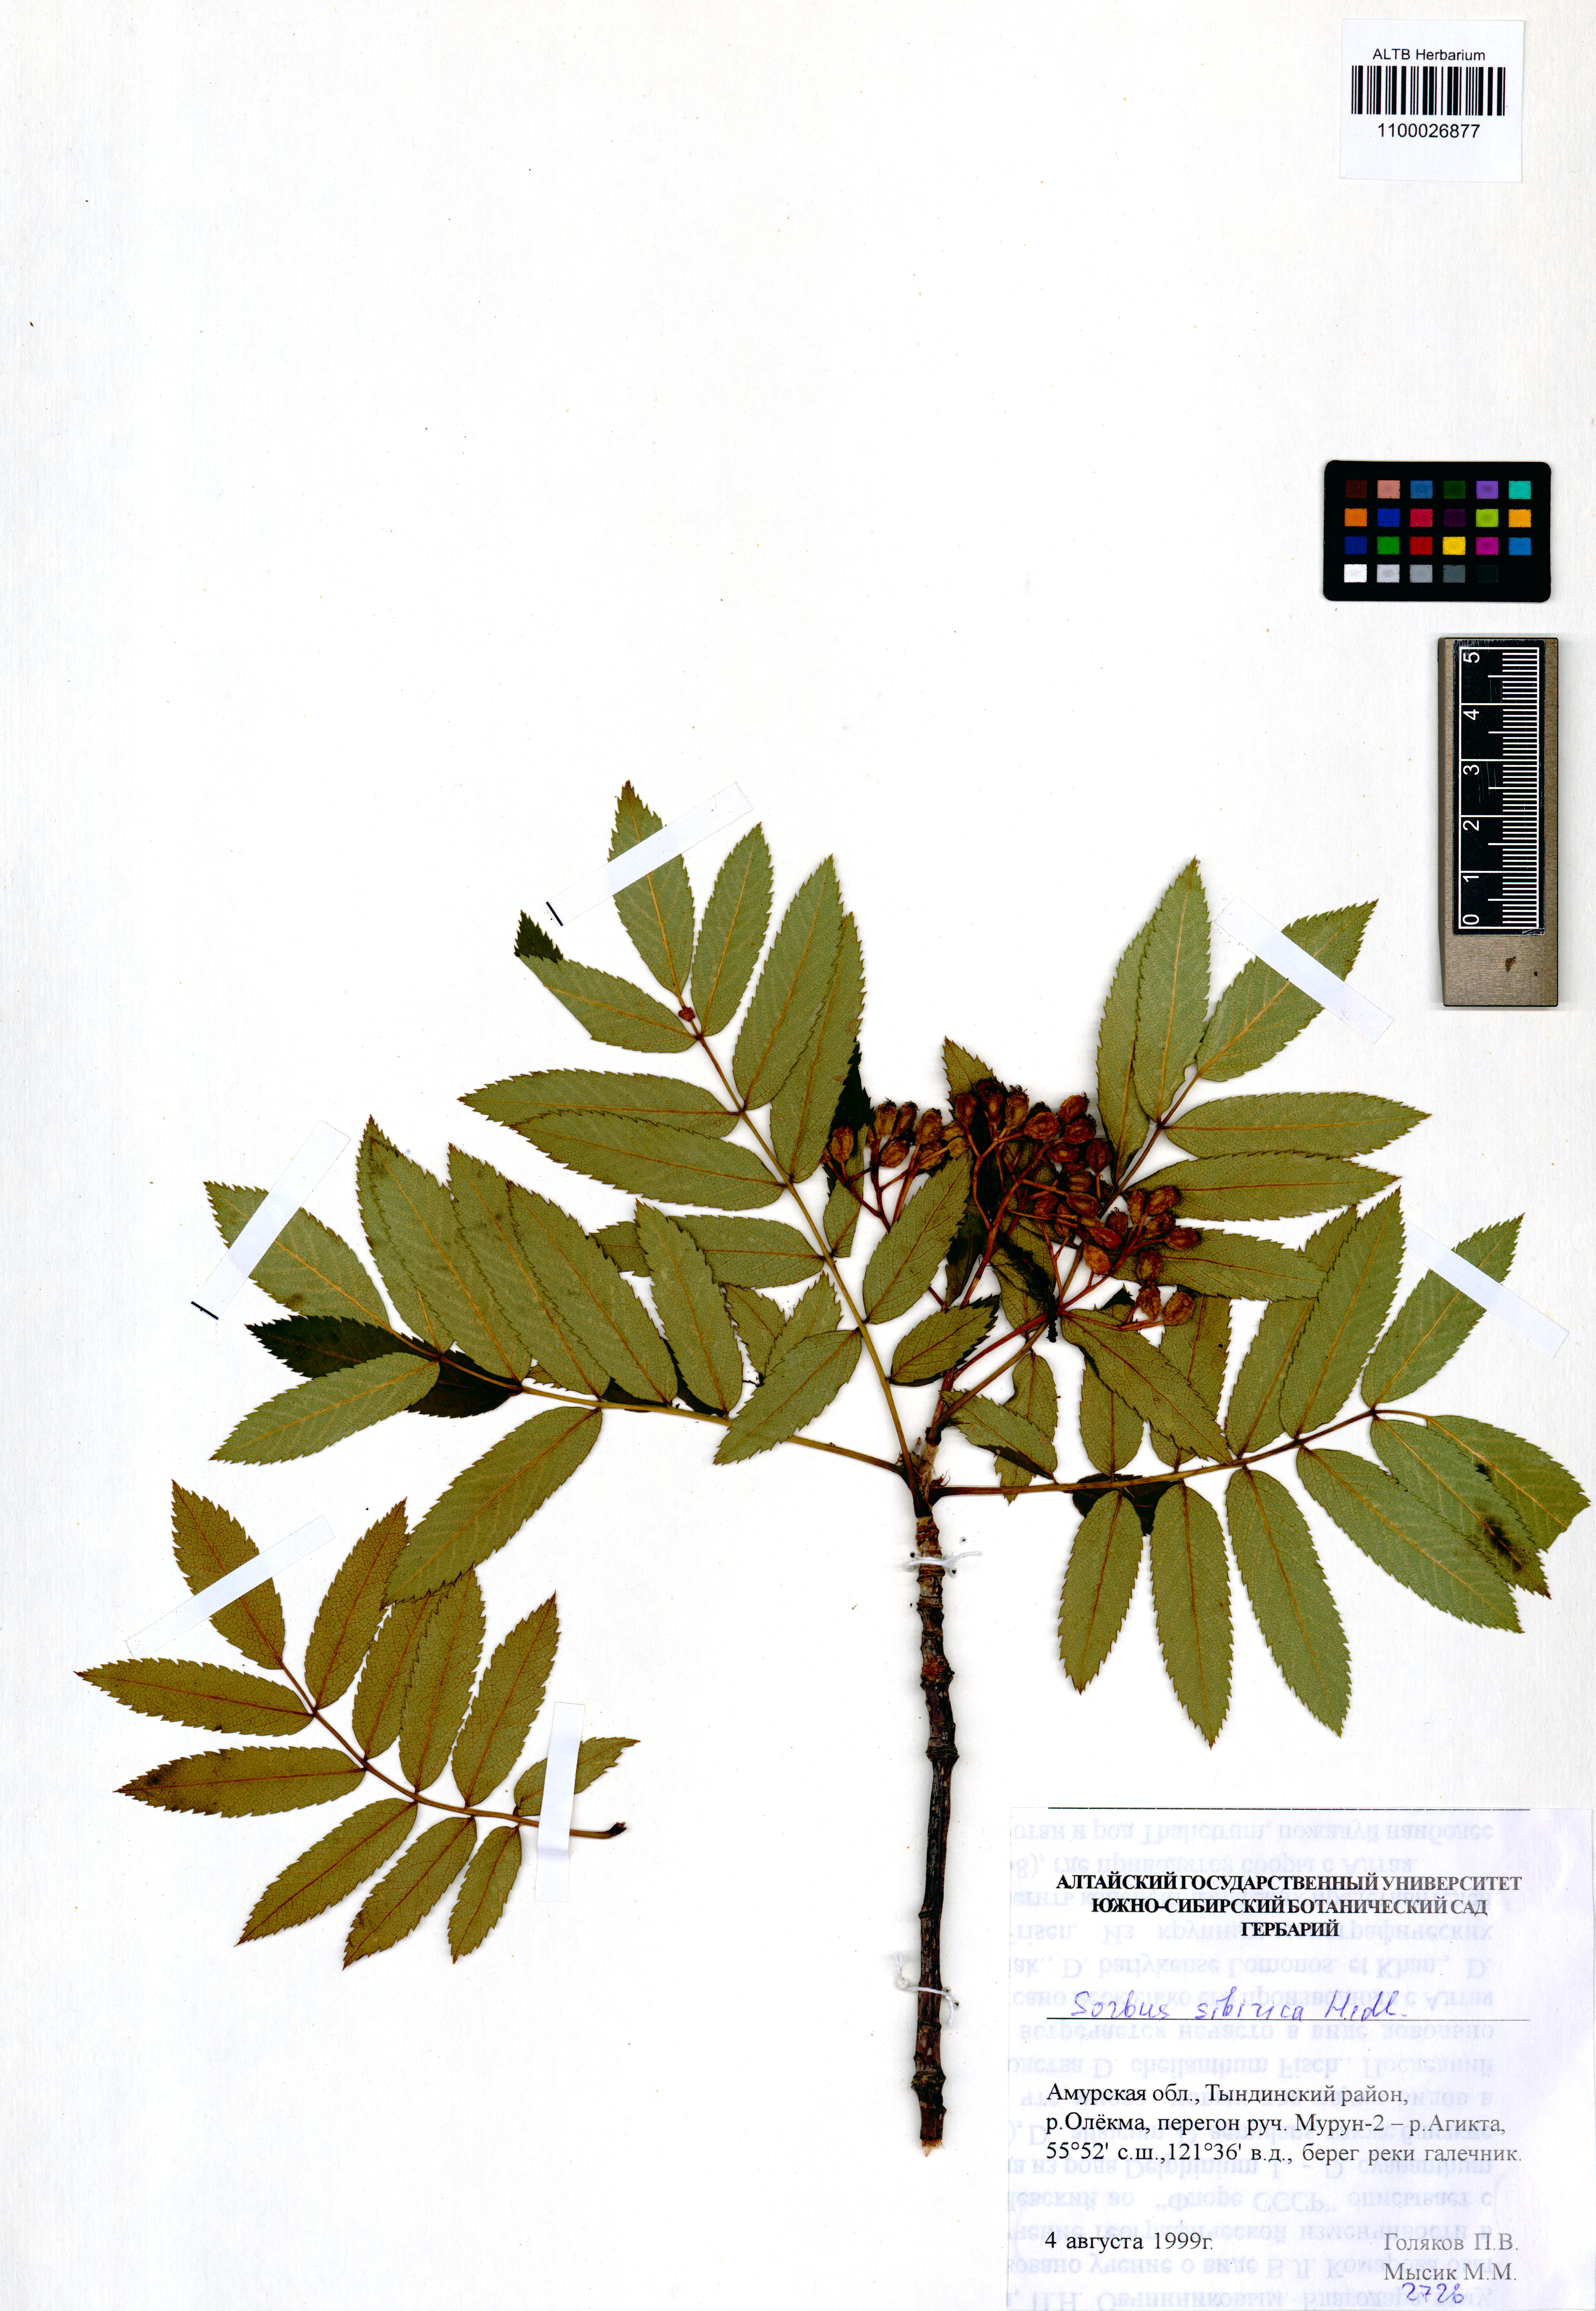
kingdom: Plantae
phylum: Tracheophyta
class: Magnoliopsida
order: Rosales
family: Rosaceae
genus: Sorbus
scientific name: Sorbus aucuparia
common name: Rowan
